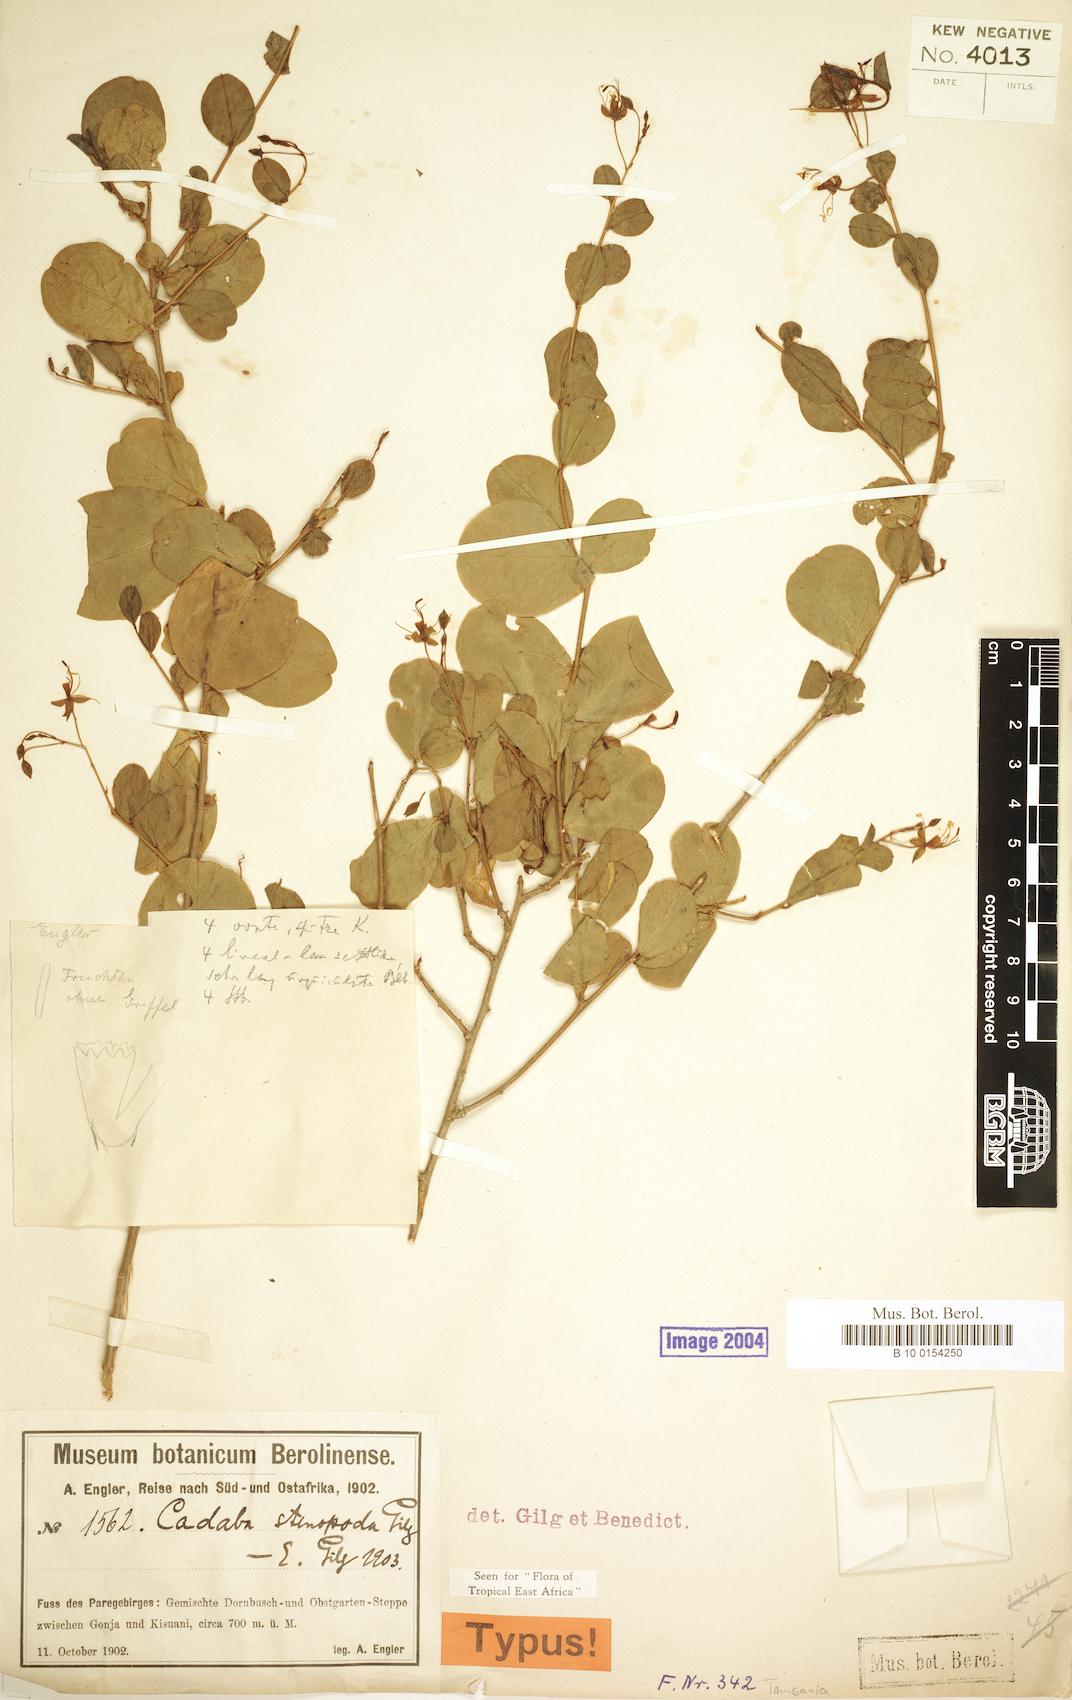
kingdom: Plantae
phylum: Tracheophyta
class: Magnoliopsida
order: Brassicales
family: Capparaceae
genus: Cadaba
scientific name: Cadaba stenopoda
